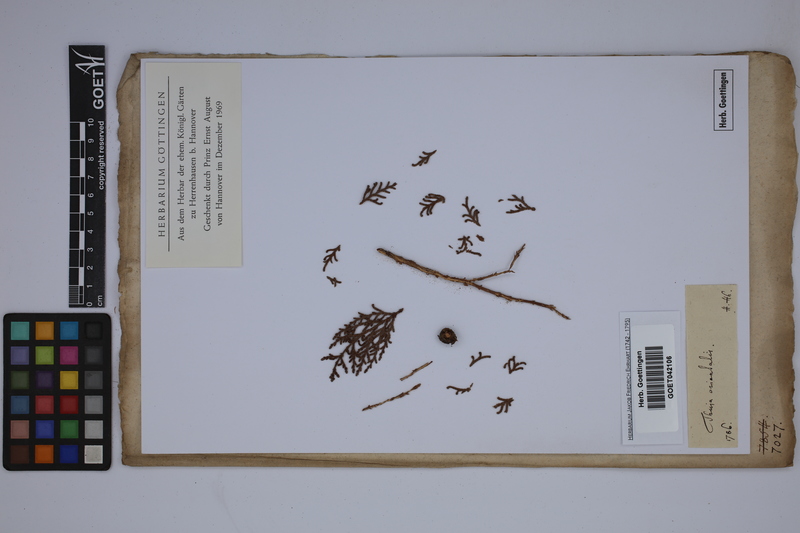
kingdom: Plantae
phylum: Tracheophyta
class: Pinopsida
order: Pinales
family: Cupressaceae
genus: Thuja
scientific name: Thuja occidentalis
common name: Northern white-cedar
